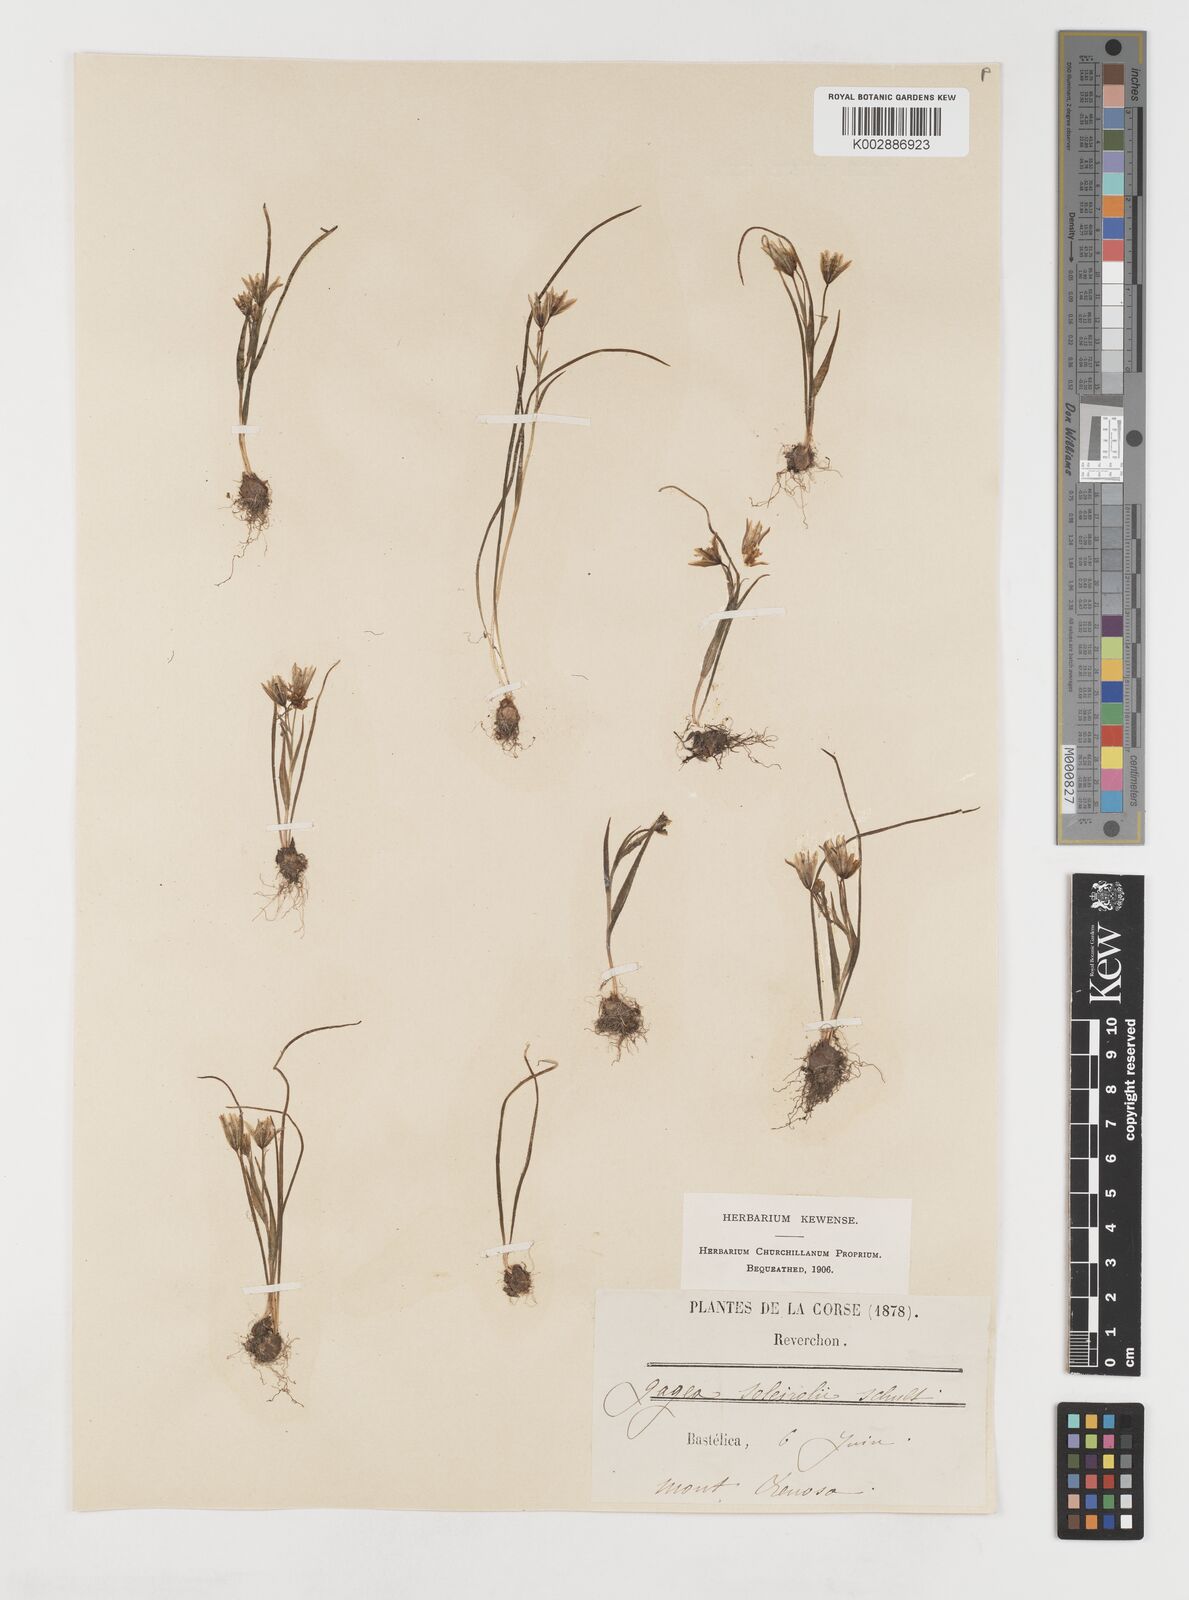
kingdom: Plantae
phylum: Tracheophyta
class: Liliopsida
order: Liliales
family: Liliaceae
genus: Gagea
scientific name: Gagea soleirolii
